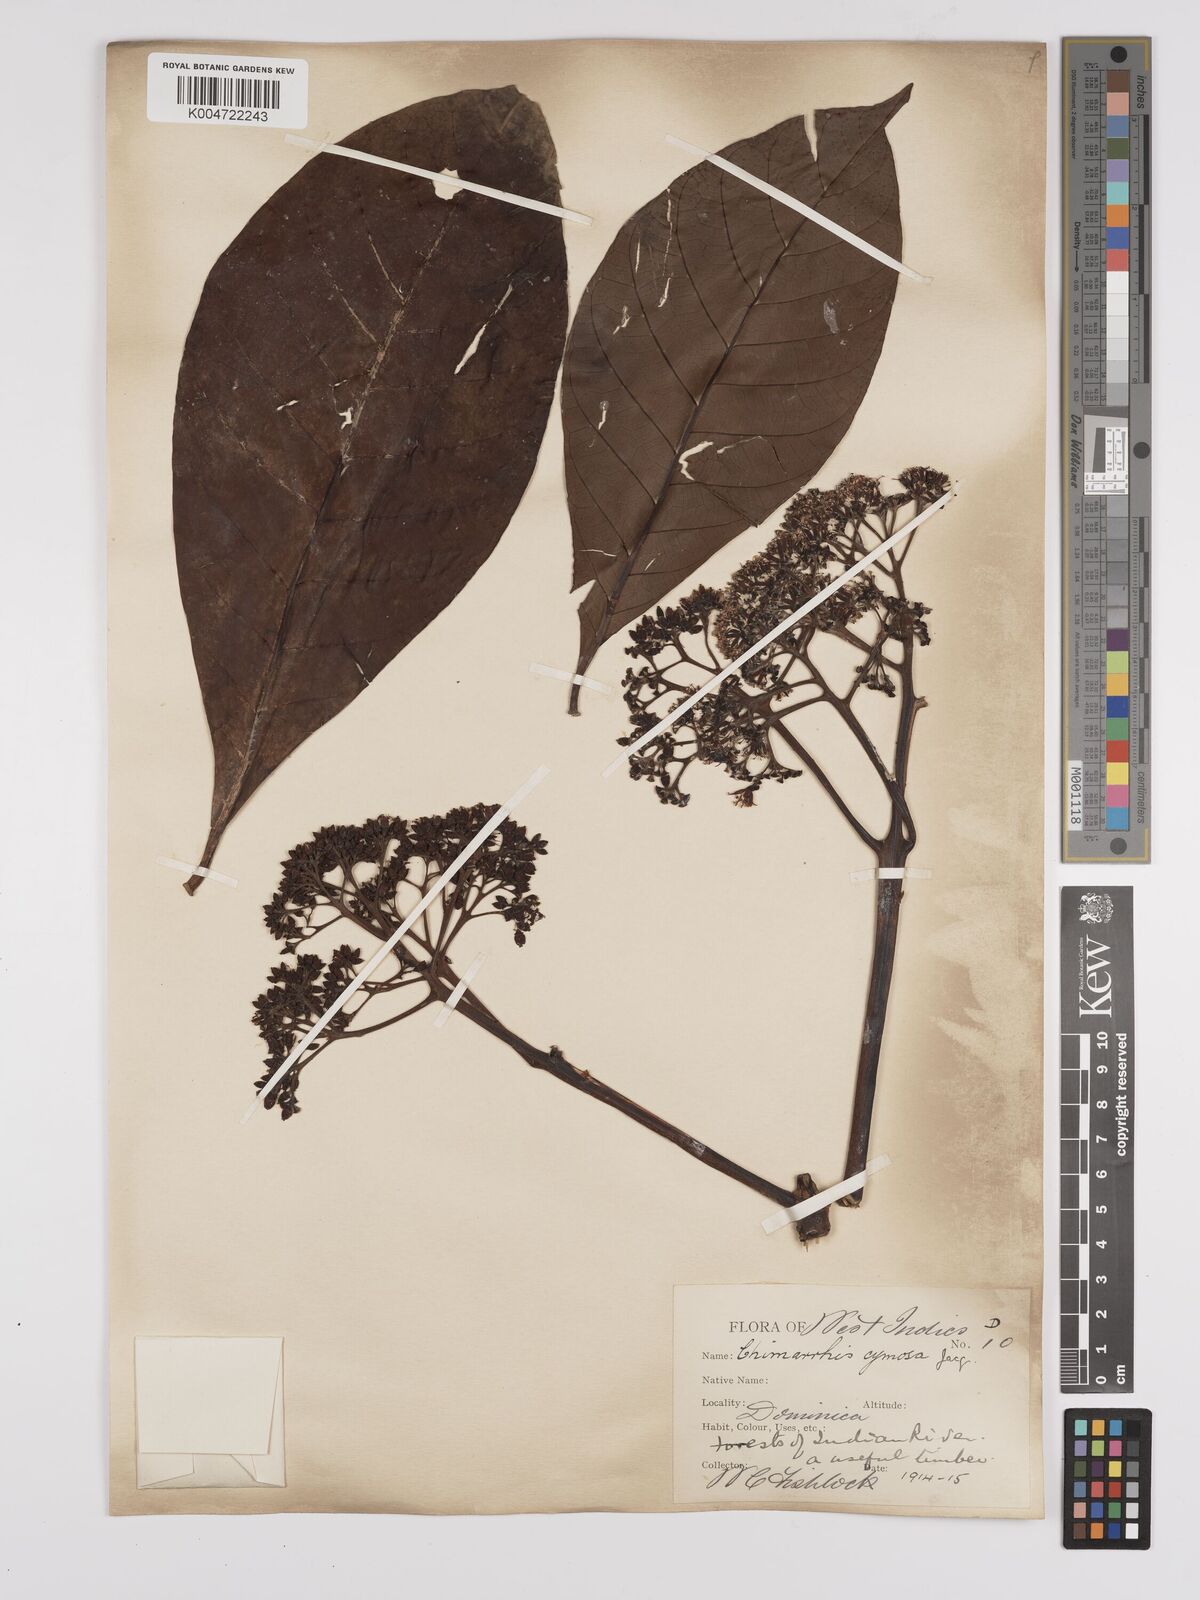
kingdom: Plantae
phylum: Tracheophyta
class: Magnoliopsida
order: Gentianales
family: Rubiaceae
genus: Chimarrhis
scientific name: Chimarrhis cymosa
